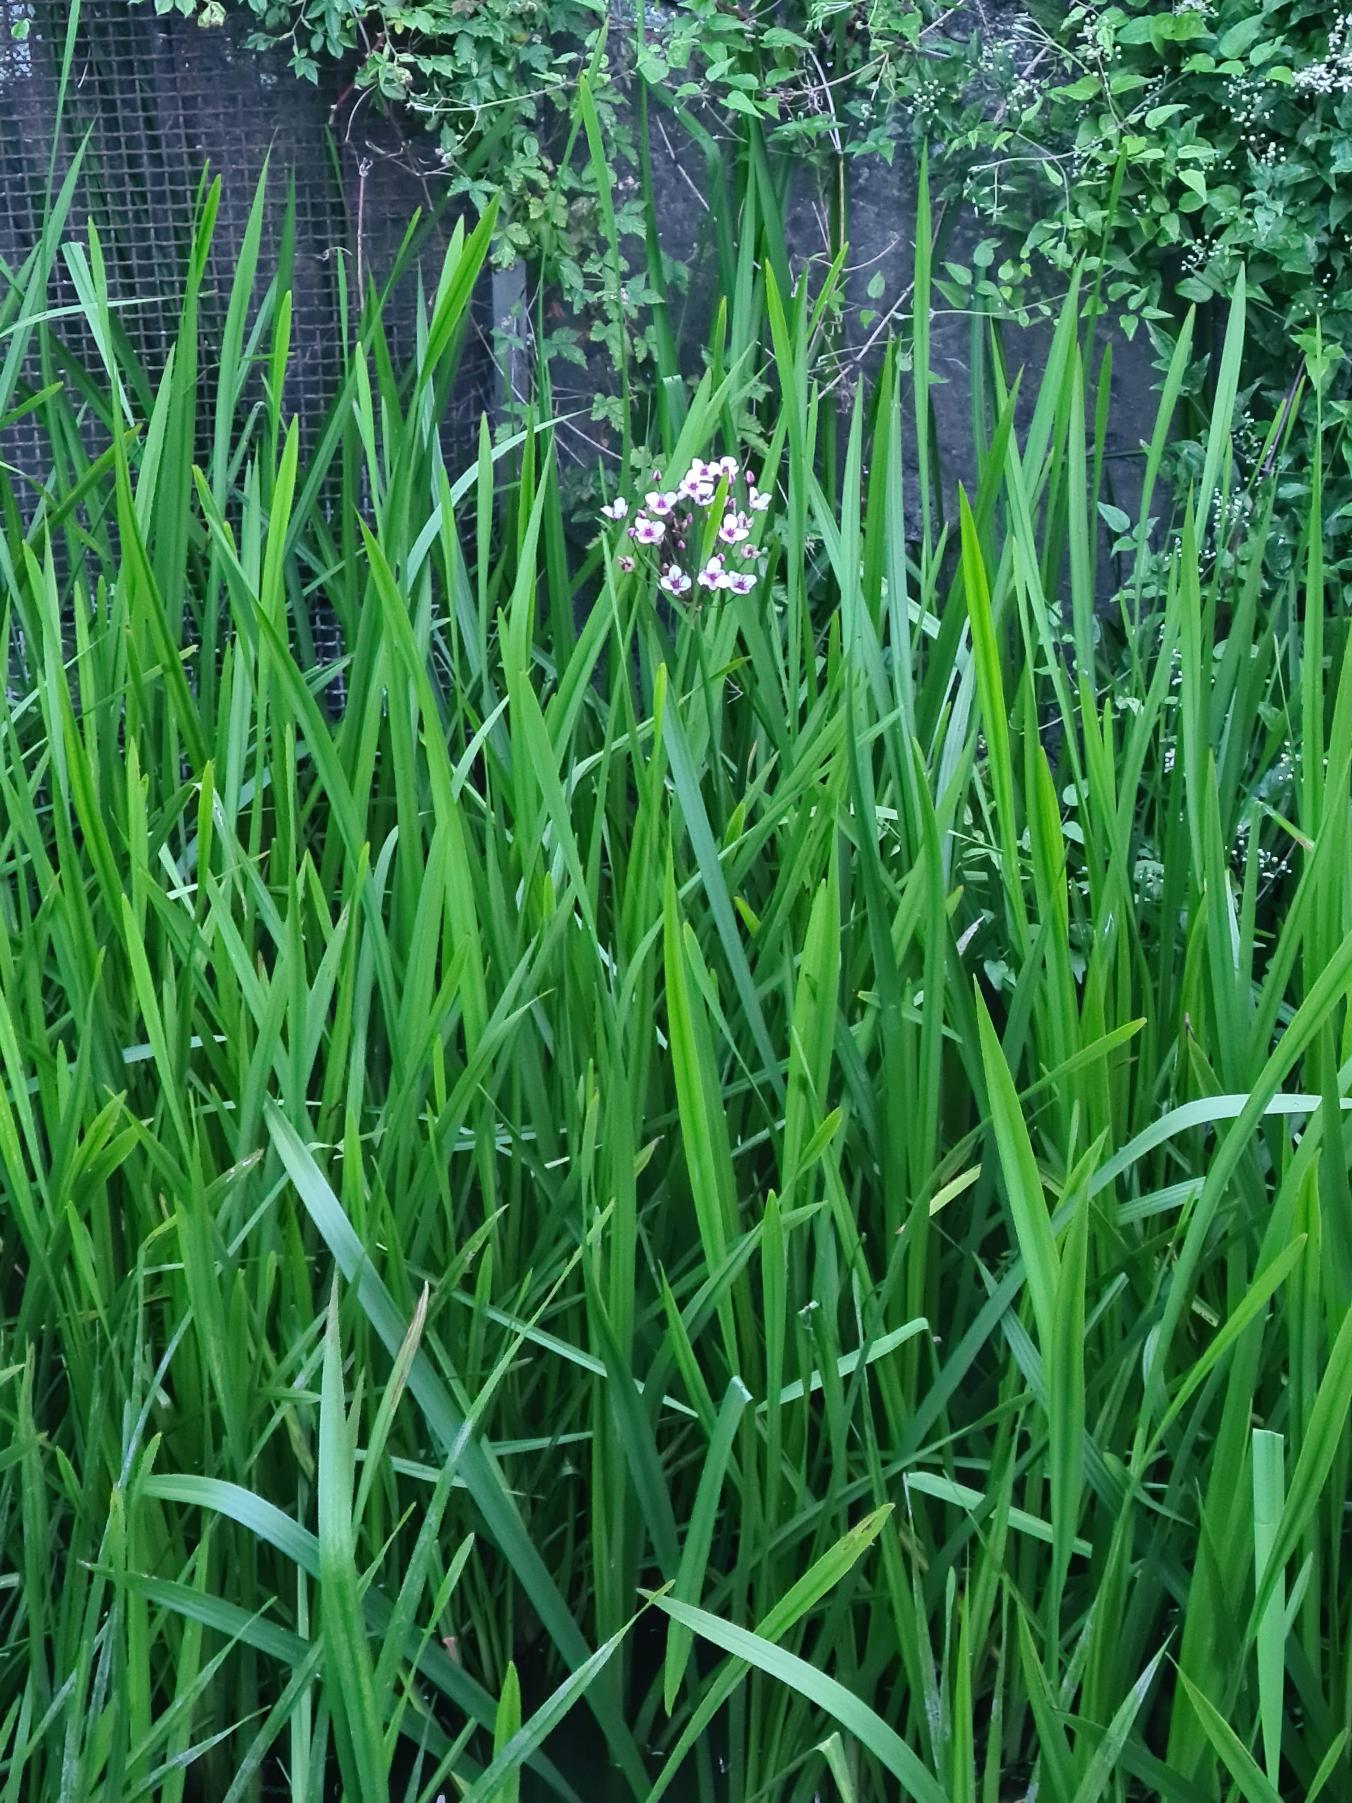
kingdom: Plantae
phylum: Tracheophyta
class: Liliopsida
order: Alismatales
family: Butomaceae
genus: Butomus
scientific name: Butomus umbellatus
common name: Brudelys
